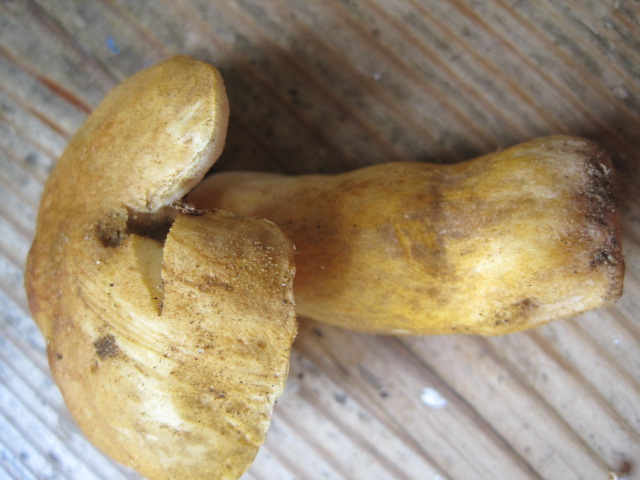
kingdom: Fungi
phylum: Basidiomycota
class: Agaricomycetes
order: Boletales
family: Gyroporaceae
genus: Gyroporus
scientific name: Gyroporus castaneus
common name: kastanie-kammerrørhat
